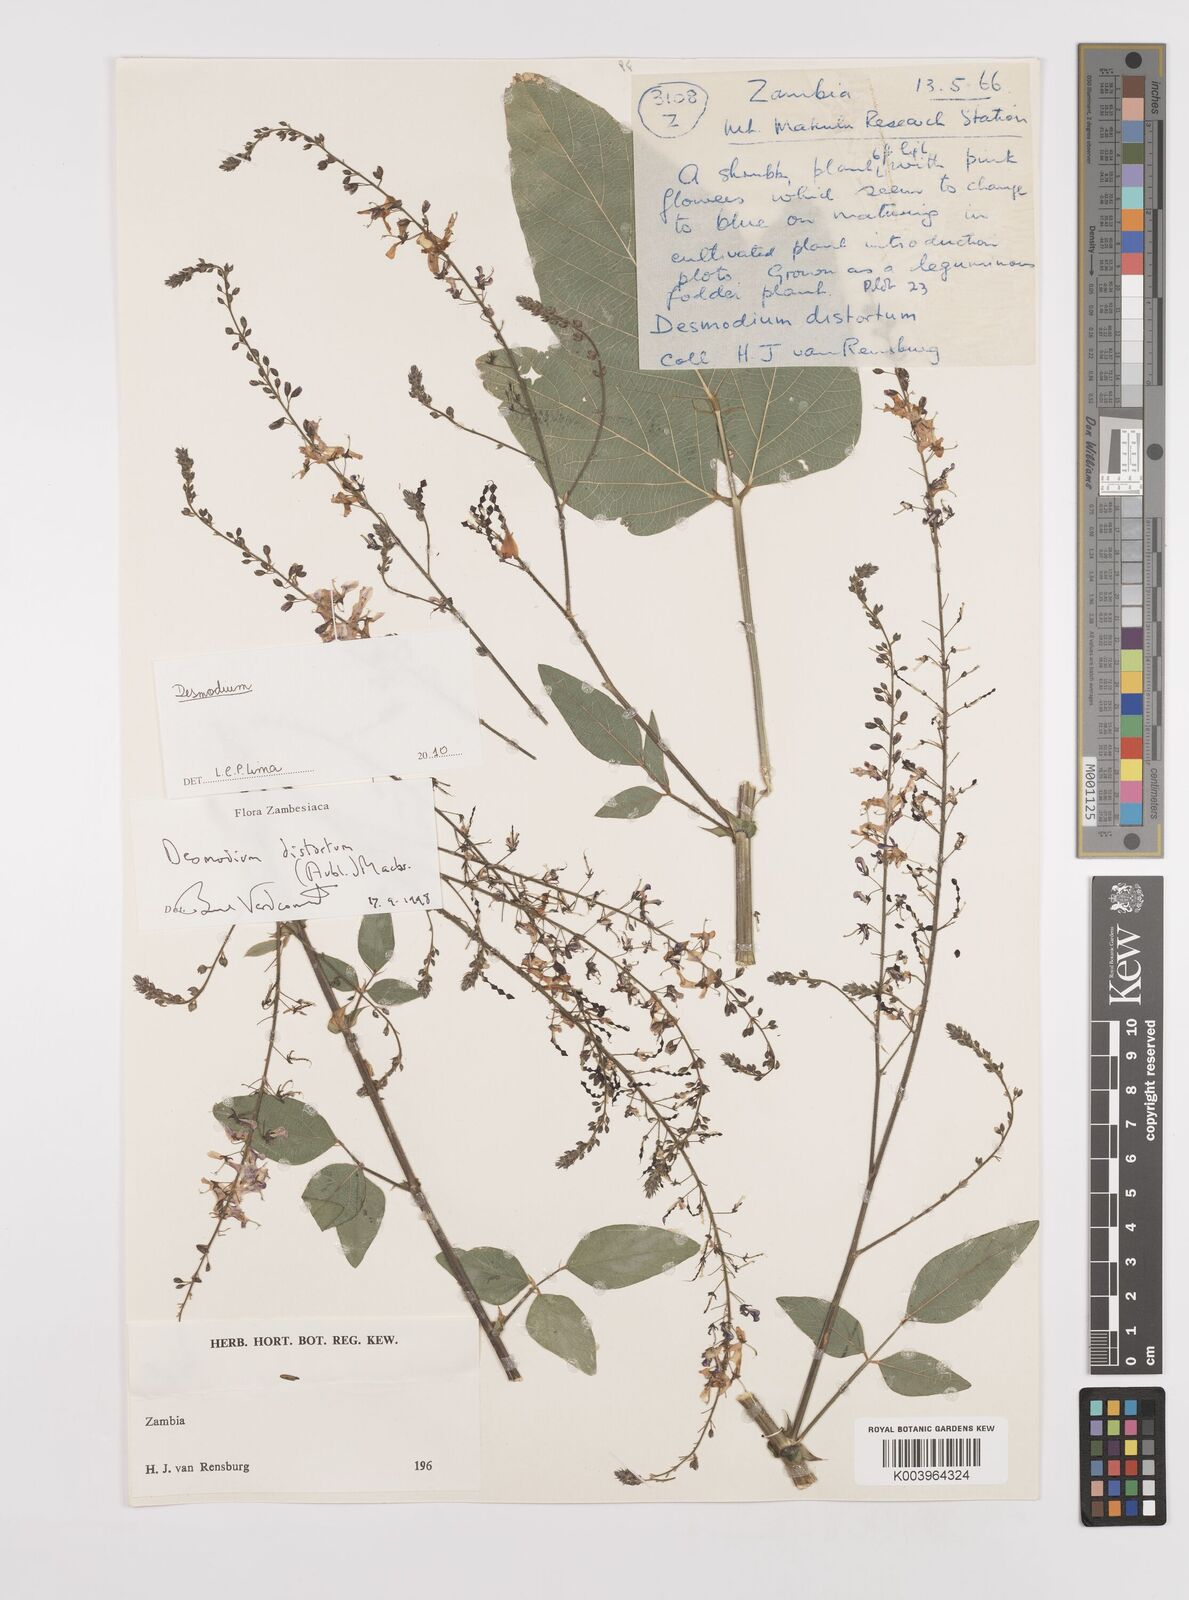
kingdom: Plantae
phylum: Tracheophyta
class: Magnoliopsida
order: Fabales
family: Fabaceae
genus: Desmodium
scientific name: Desmodium
